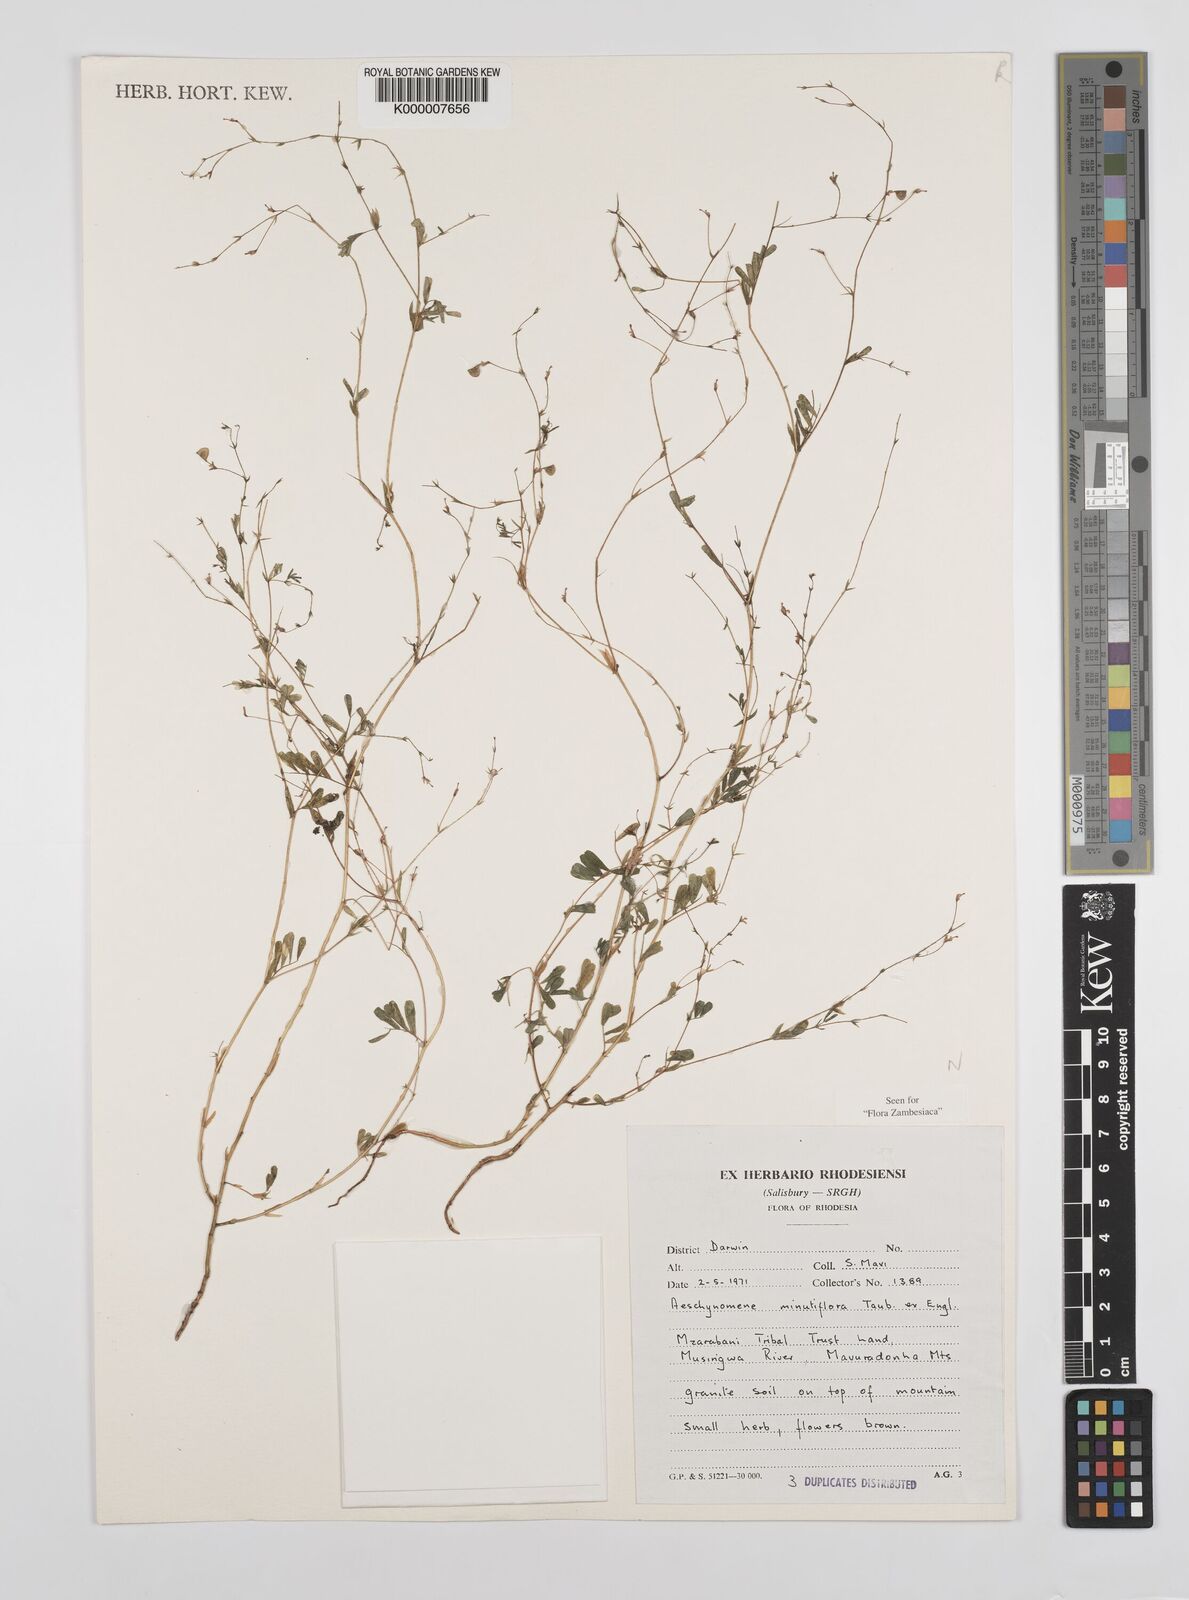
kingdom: Plantae
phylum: Tracheophyta
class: Magnoliopsida
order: Fabales
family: Fabaceae
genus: Aeschynomene
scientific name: Aeschynomene minutiflora
